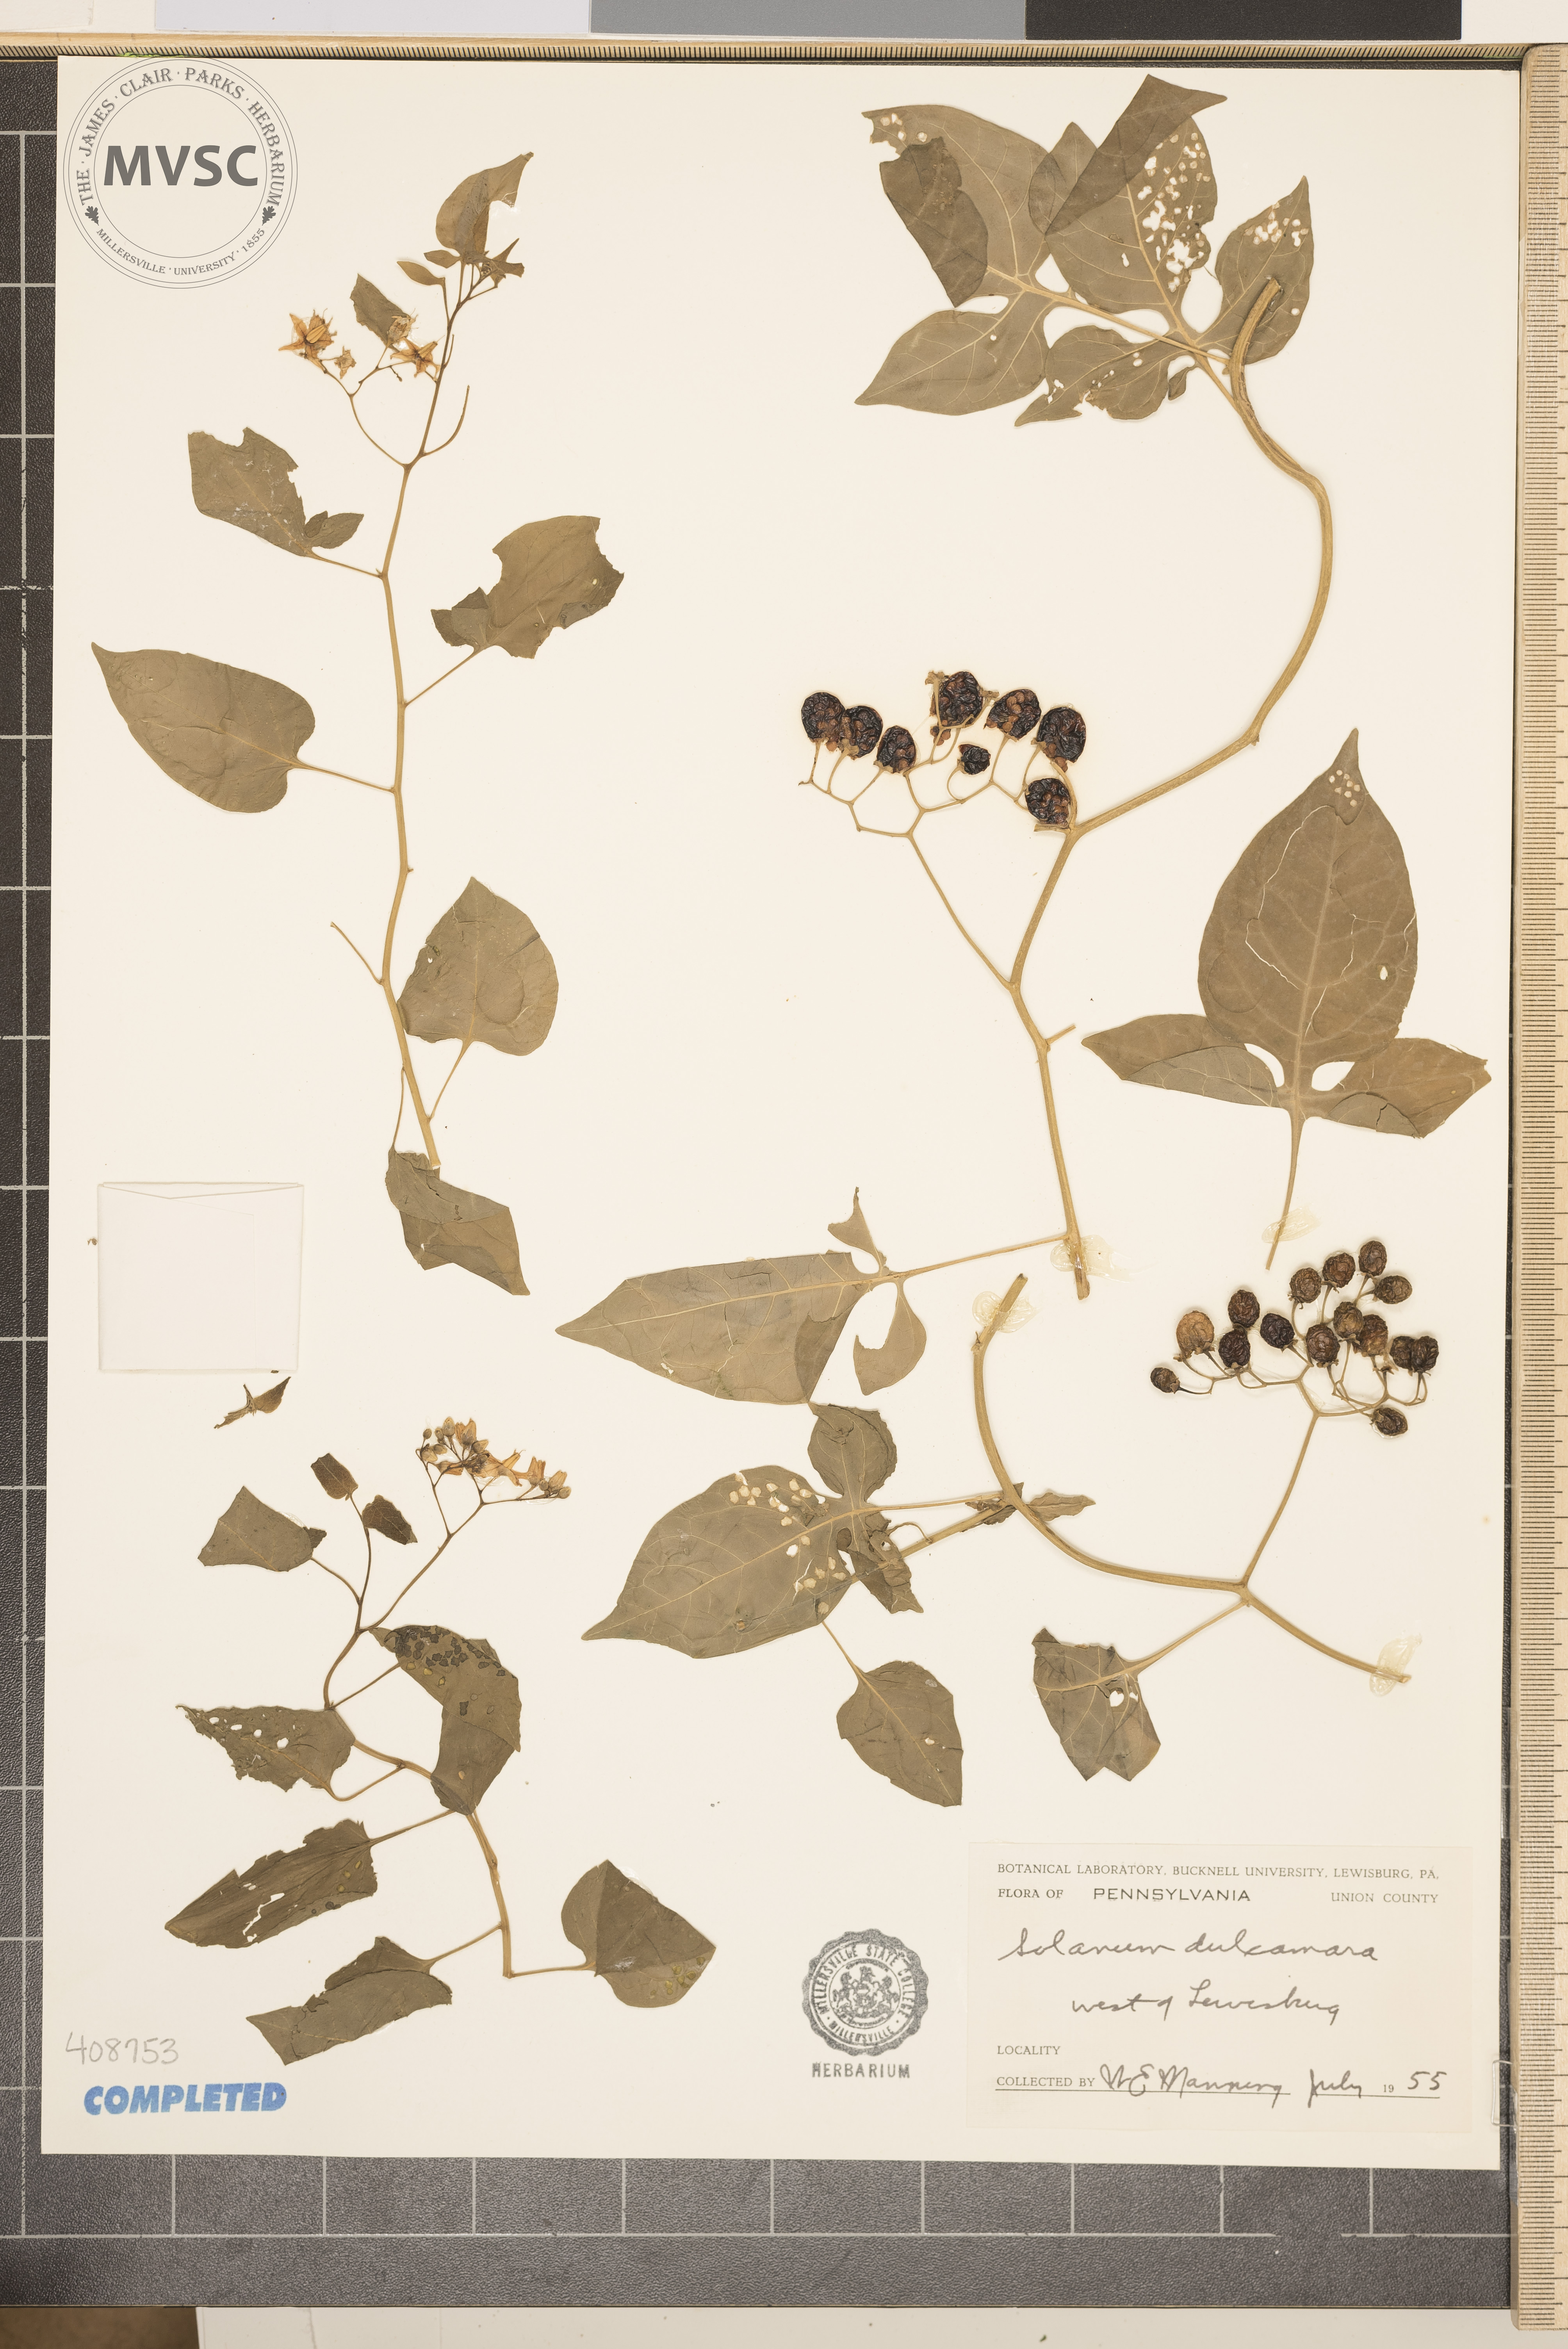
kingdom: Plantae
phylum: Tracheophyta
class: Magnoliopsida
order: Solanales
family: Solanaceae
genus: Solanum
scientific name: Solanum dulcamara
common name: Climbing nightshade
